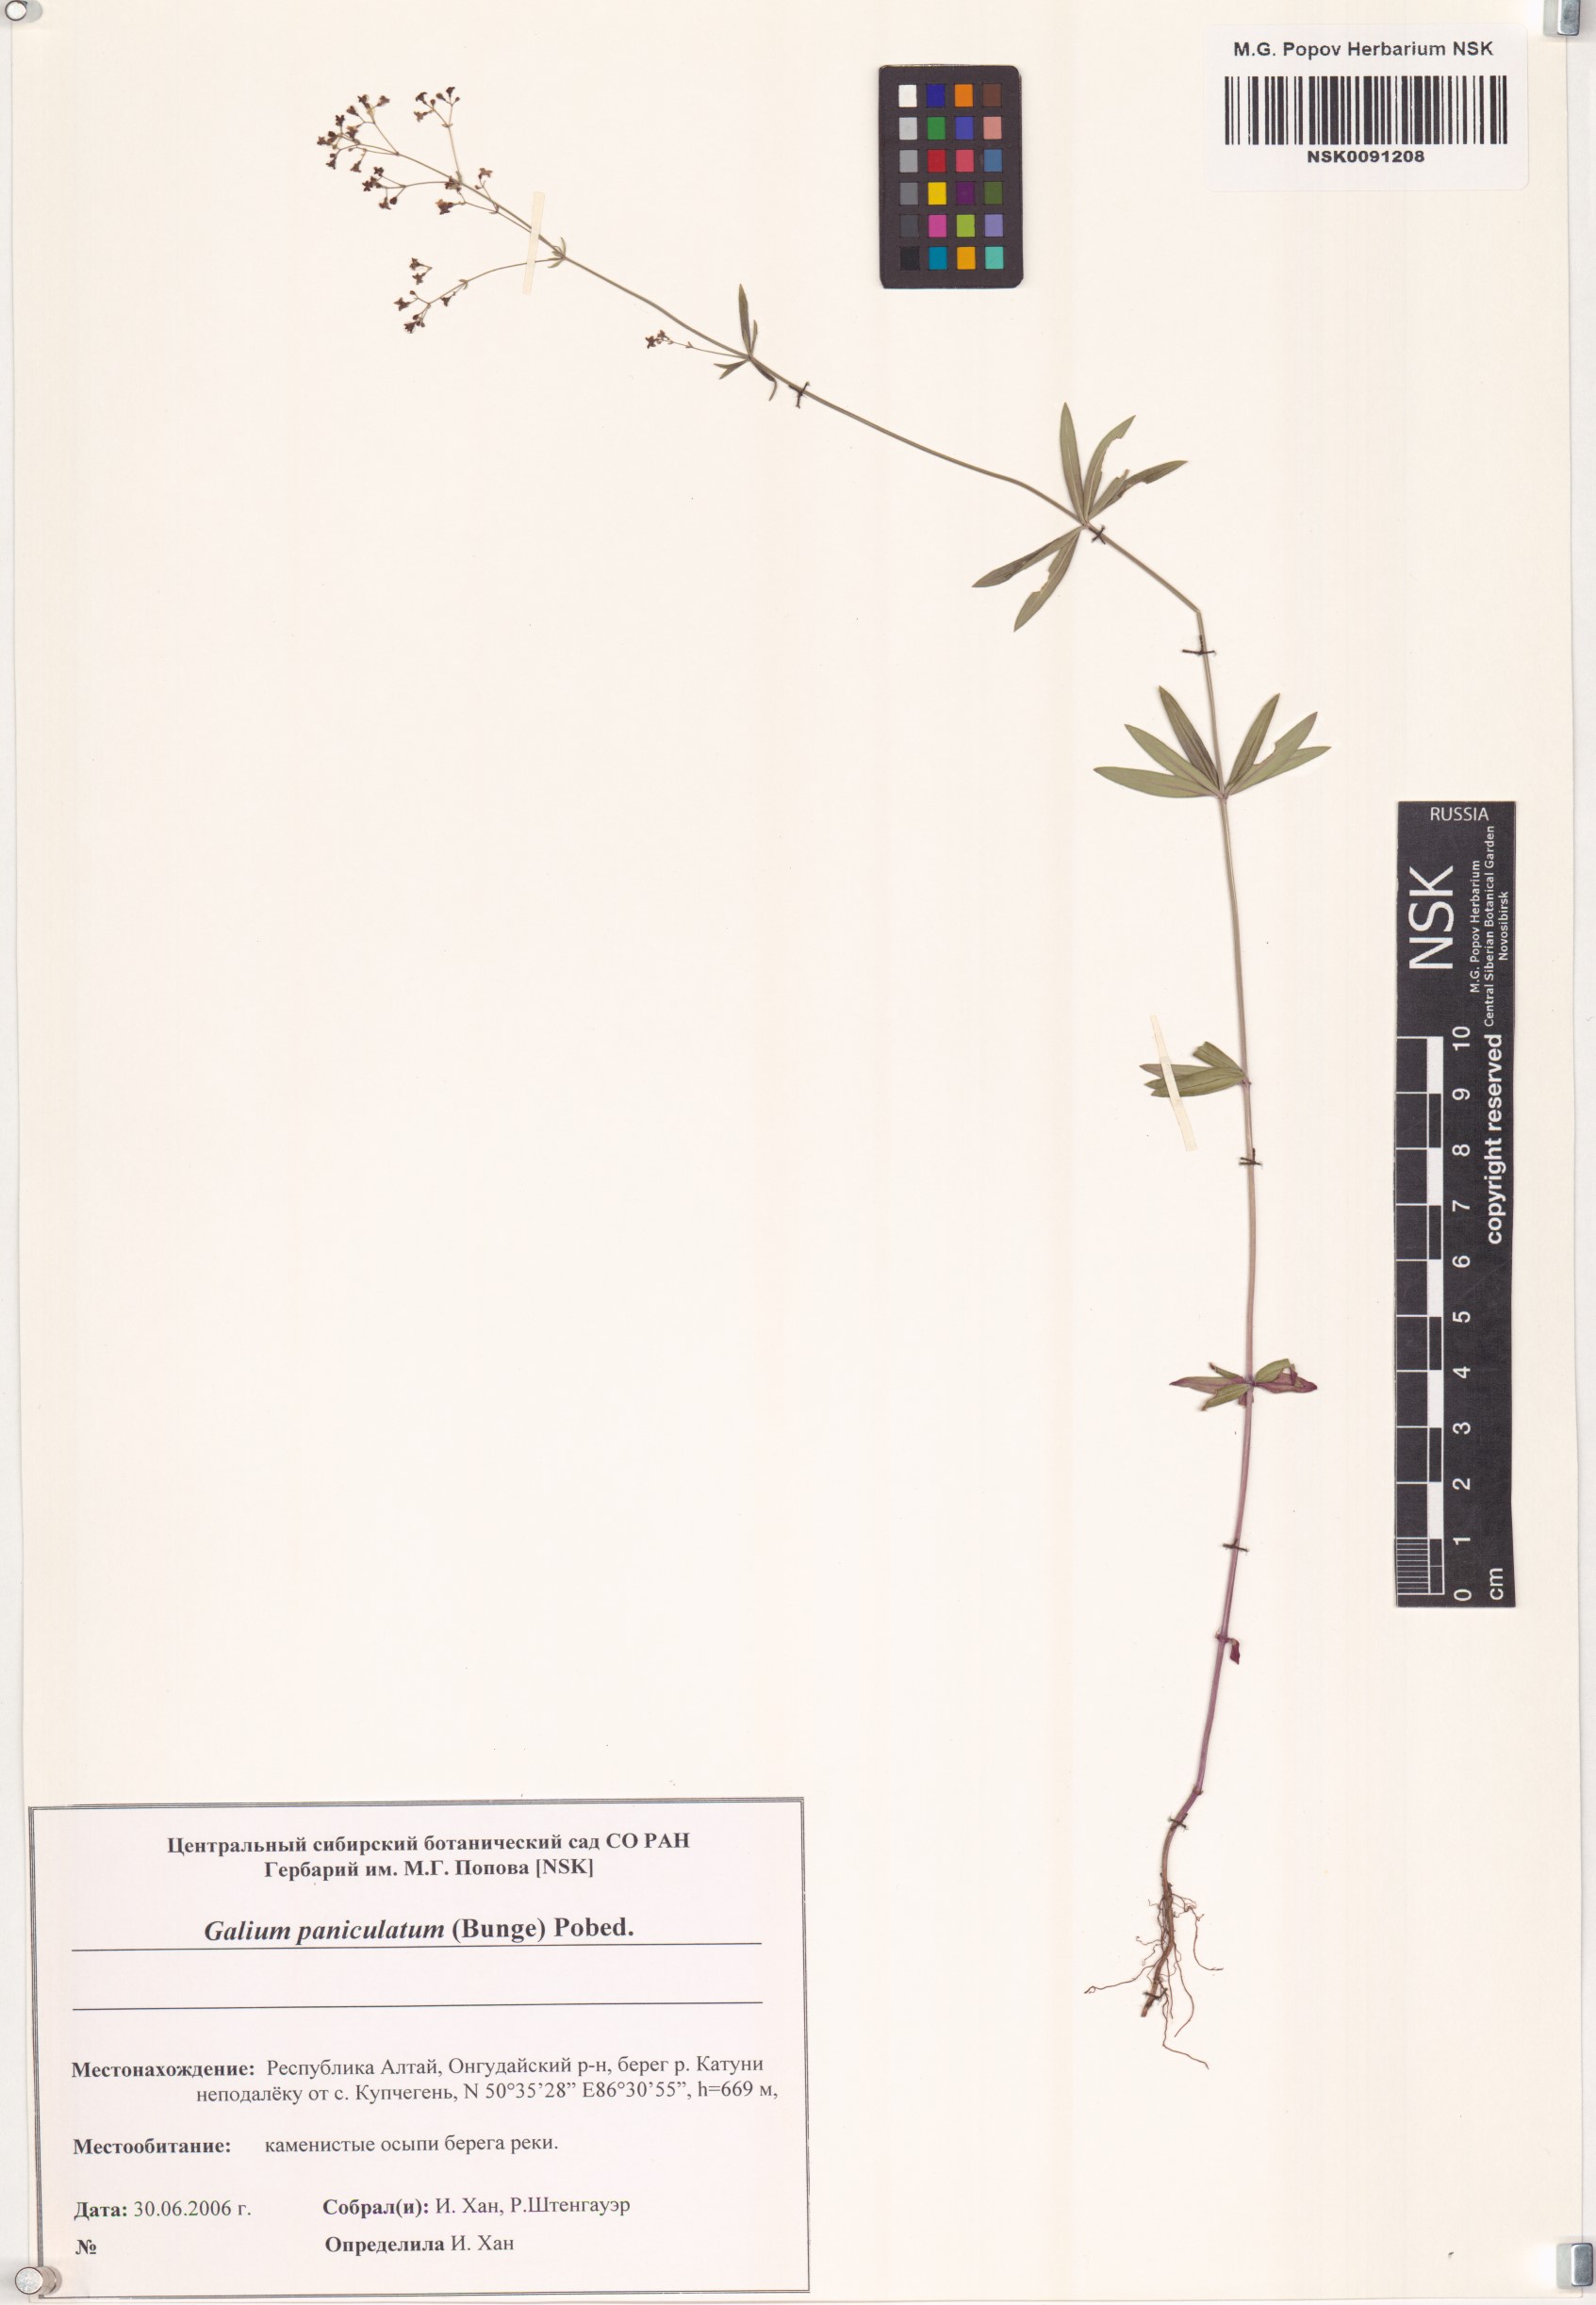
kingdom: Plantae
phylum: Tracheophyta
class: Magnoliopsida
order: Gentianales
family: Rubiaceae
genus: Galium
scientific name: Galium paniculatum
